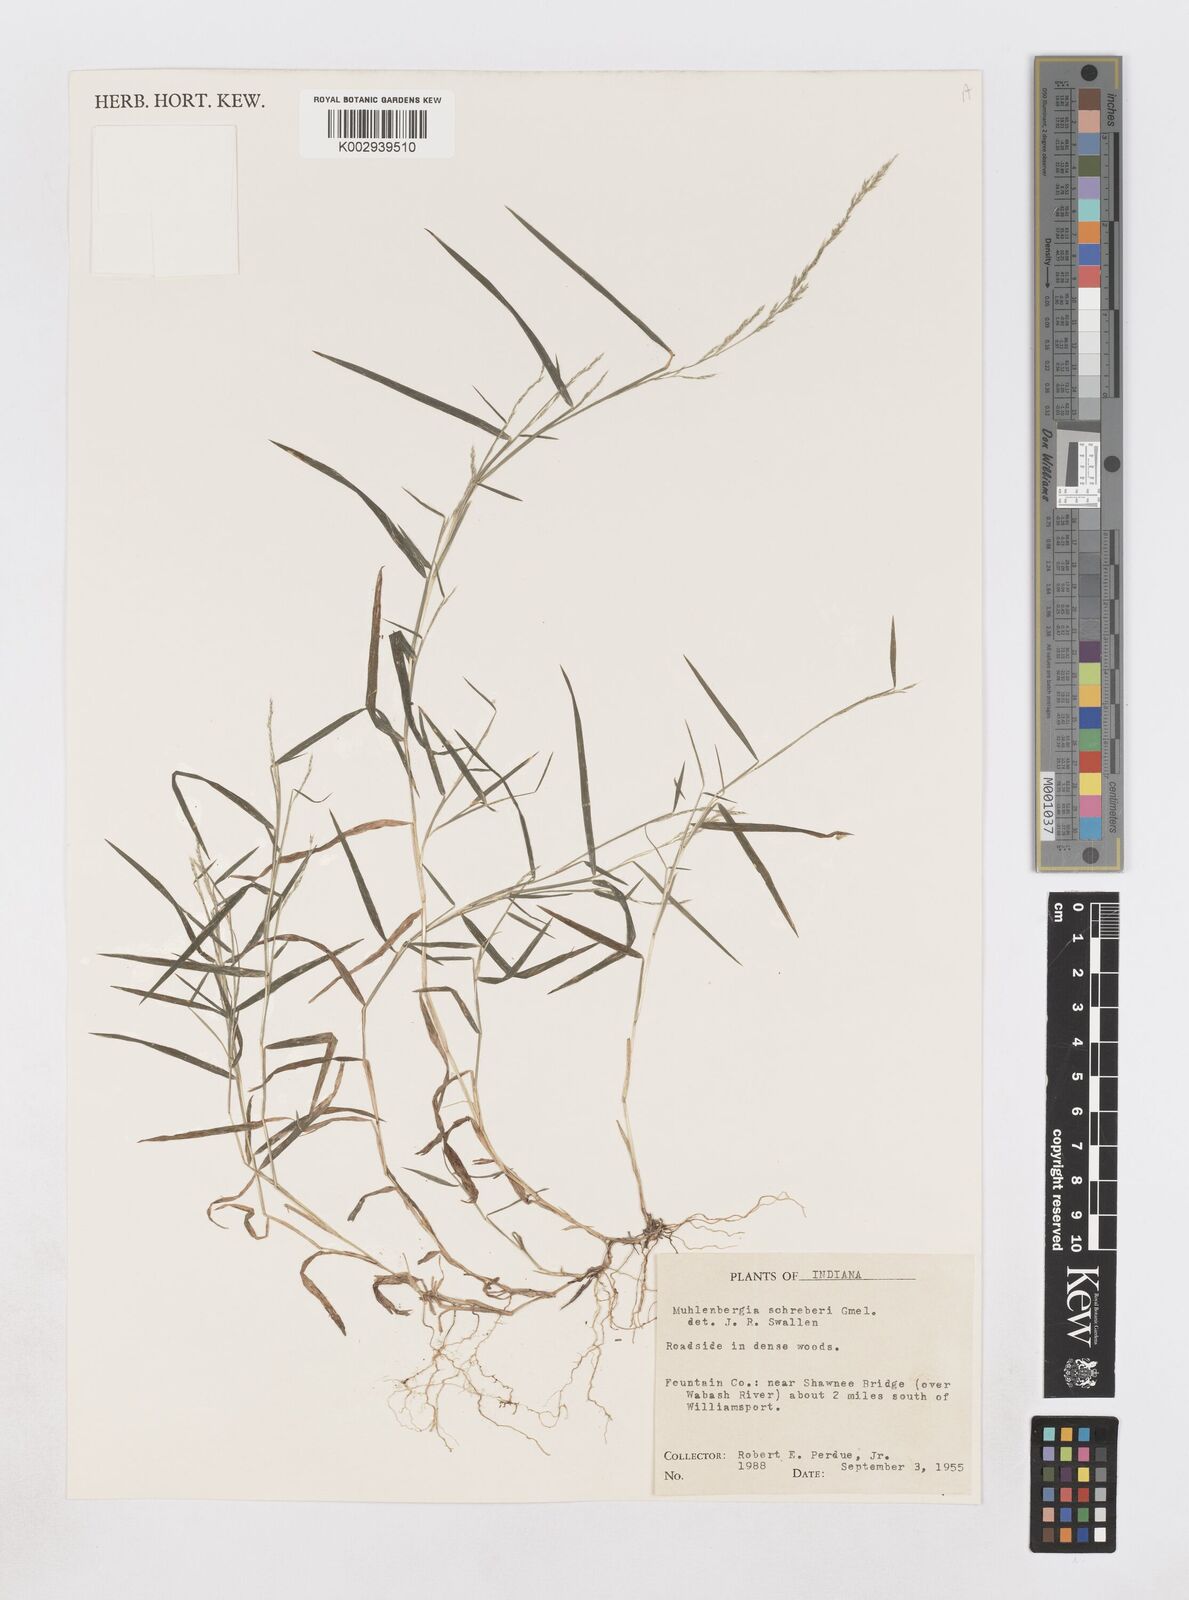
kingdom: Plantae
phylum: Tracheophyta
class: Liliopsida
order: Poales
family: Poaceae
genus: Muhlenbergia
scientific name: Muhlenbergia schreberi
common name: Nimblewill
